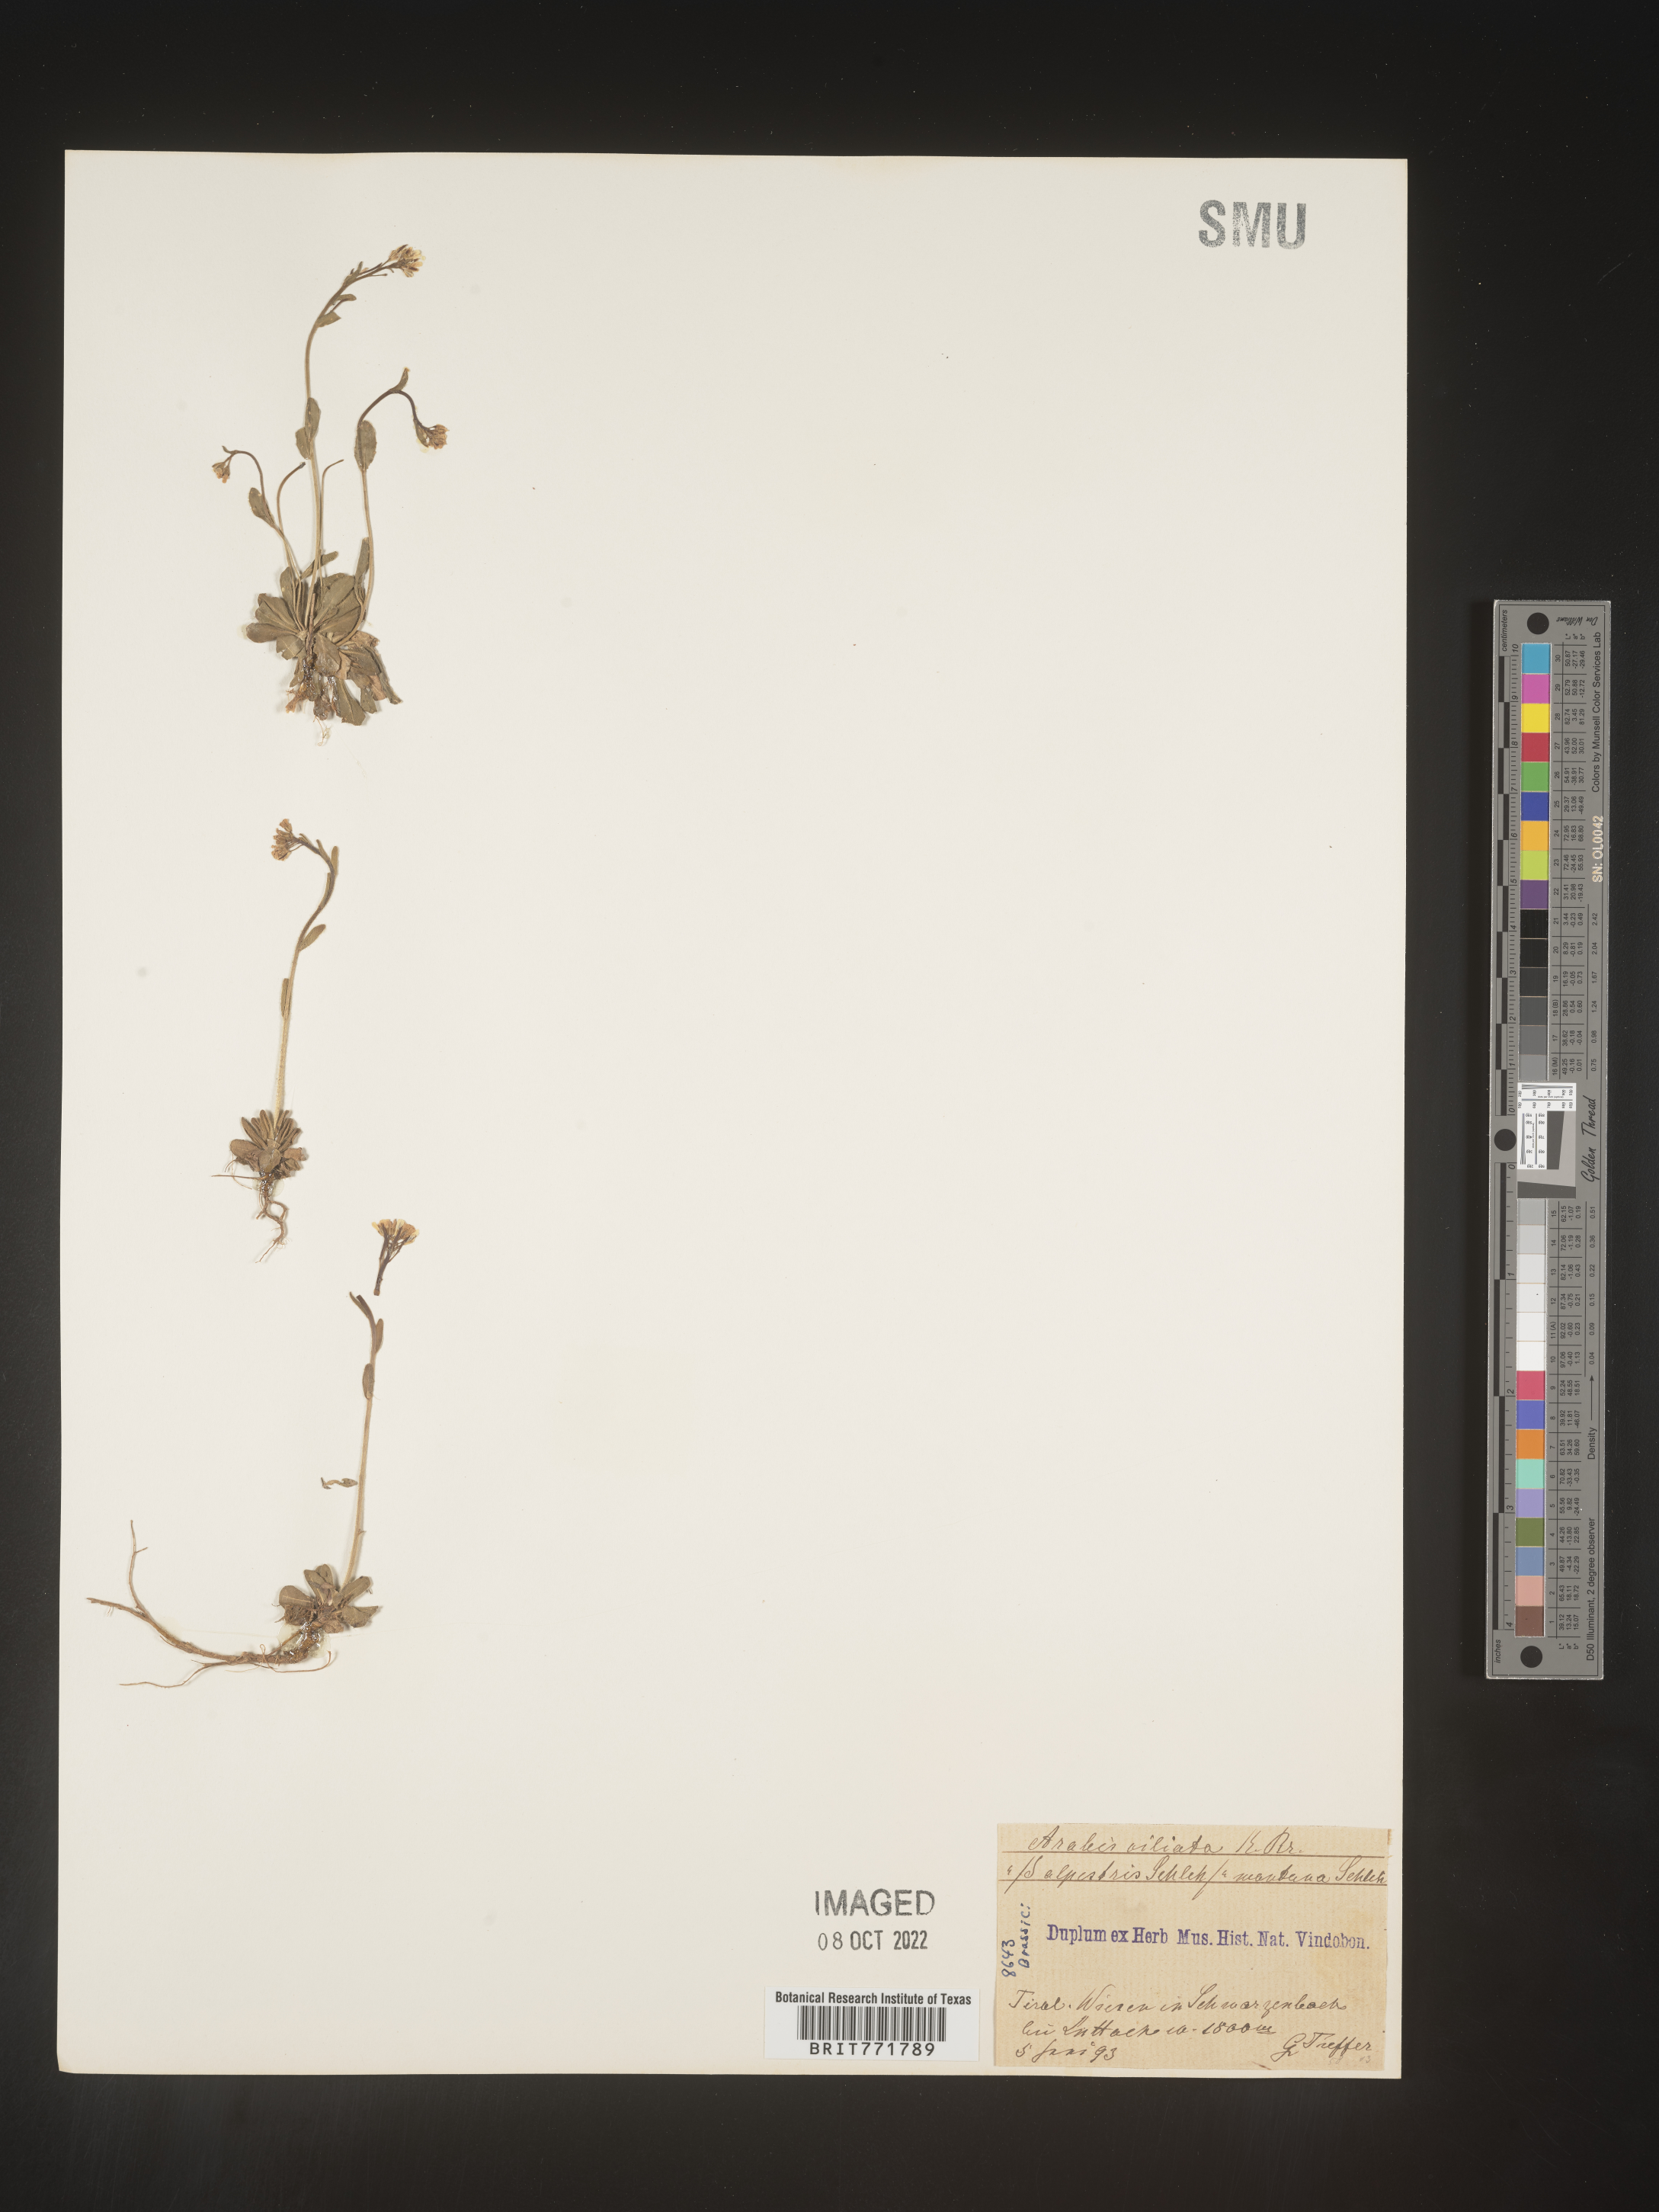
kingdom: Plantae
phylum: Tracheophyta
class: Magnoliopsida
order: Brassicales
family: Brassicaceae
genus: Arabis
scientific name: Arabis
